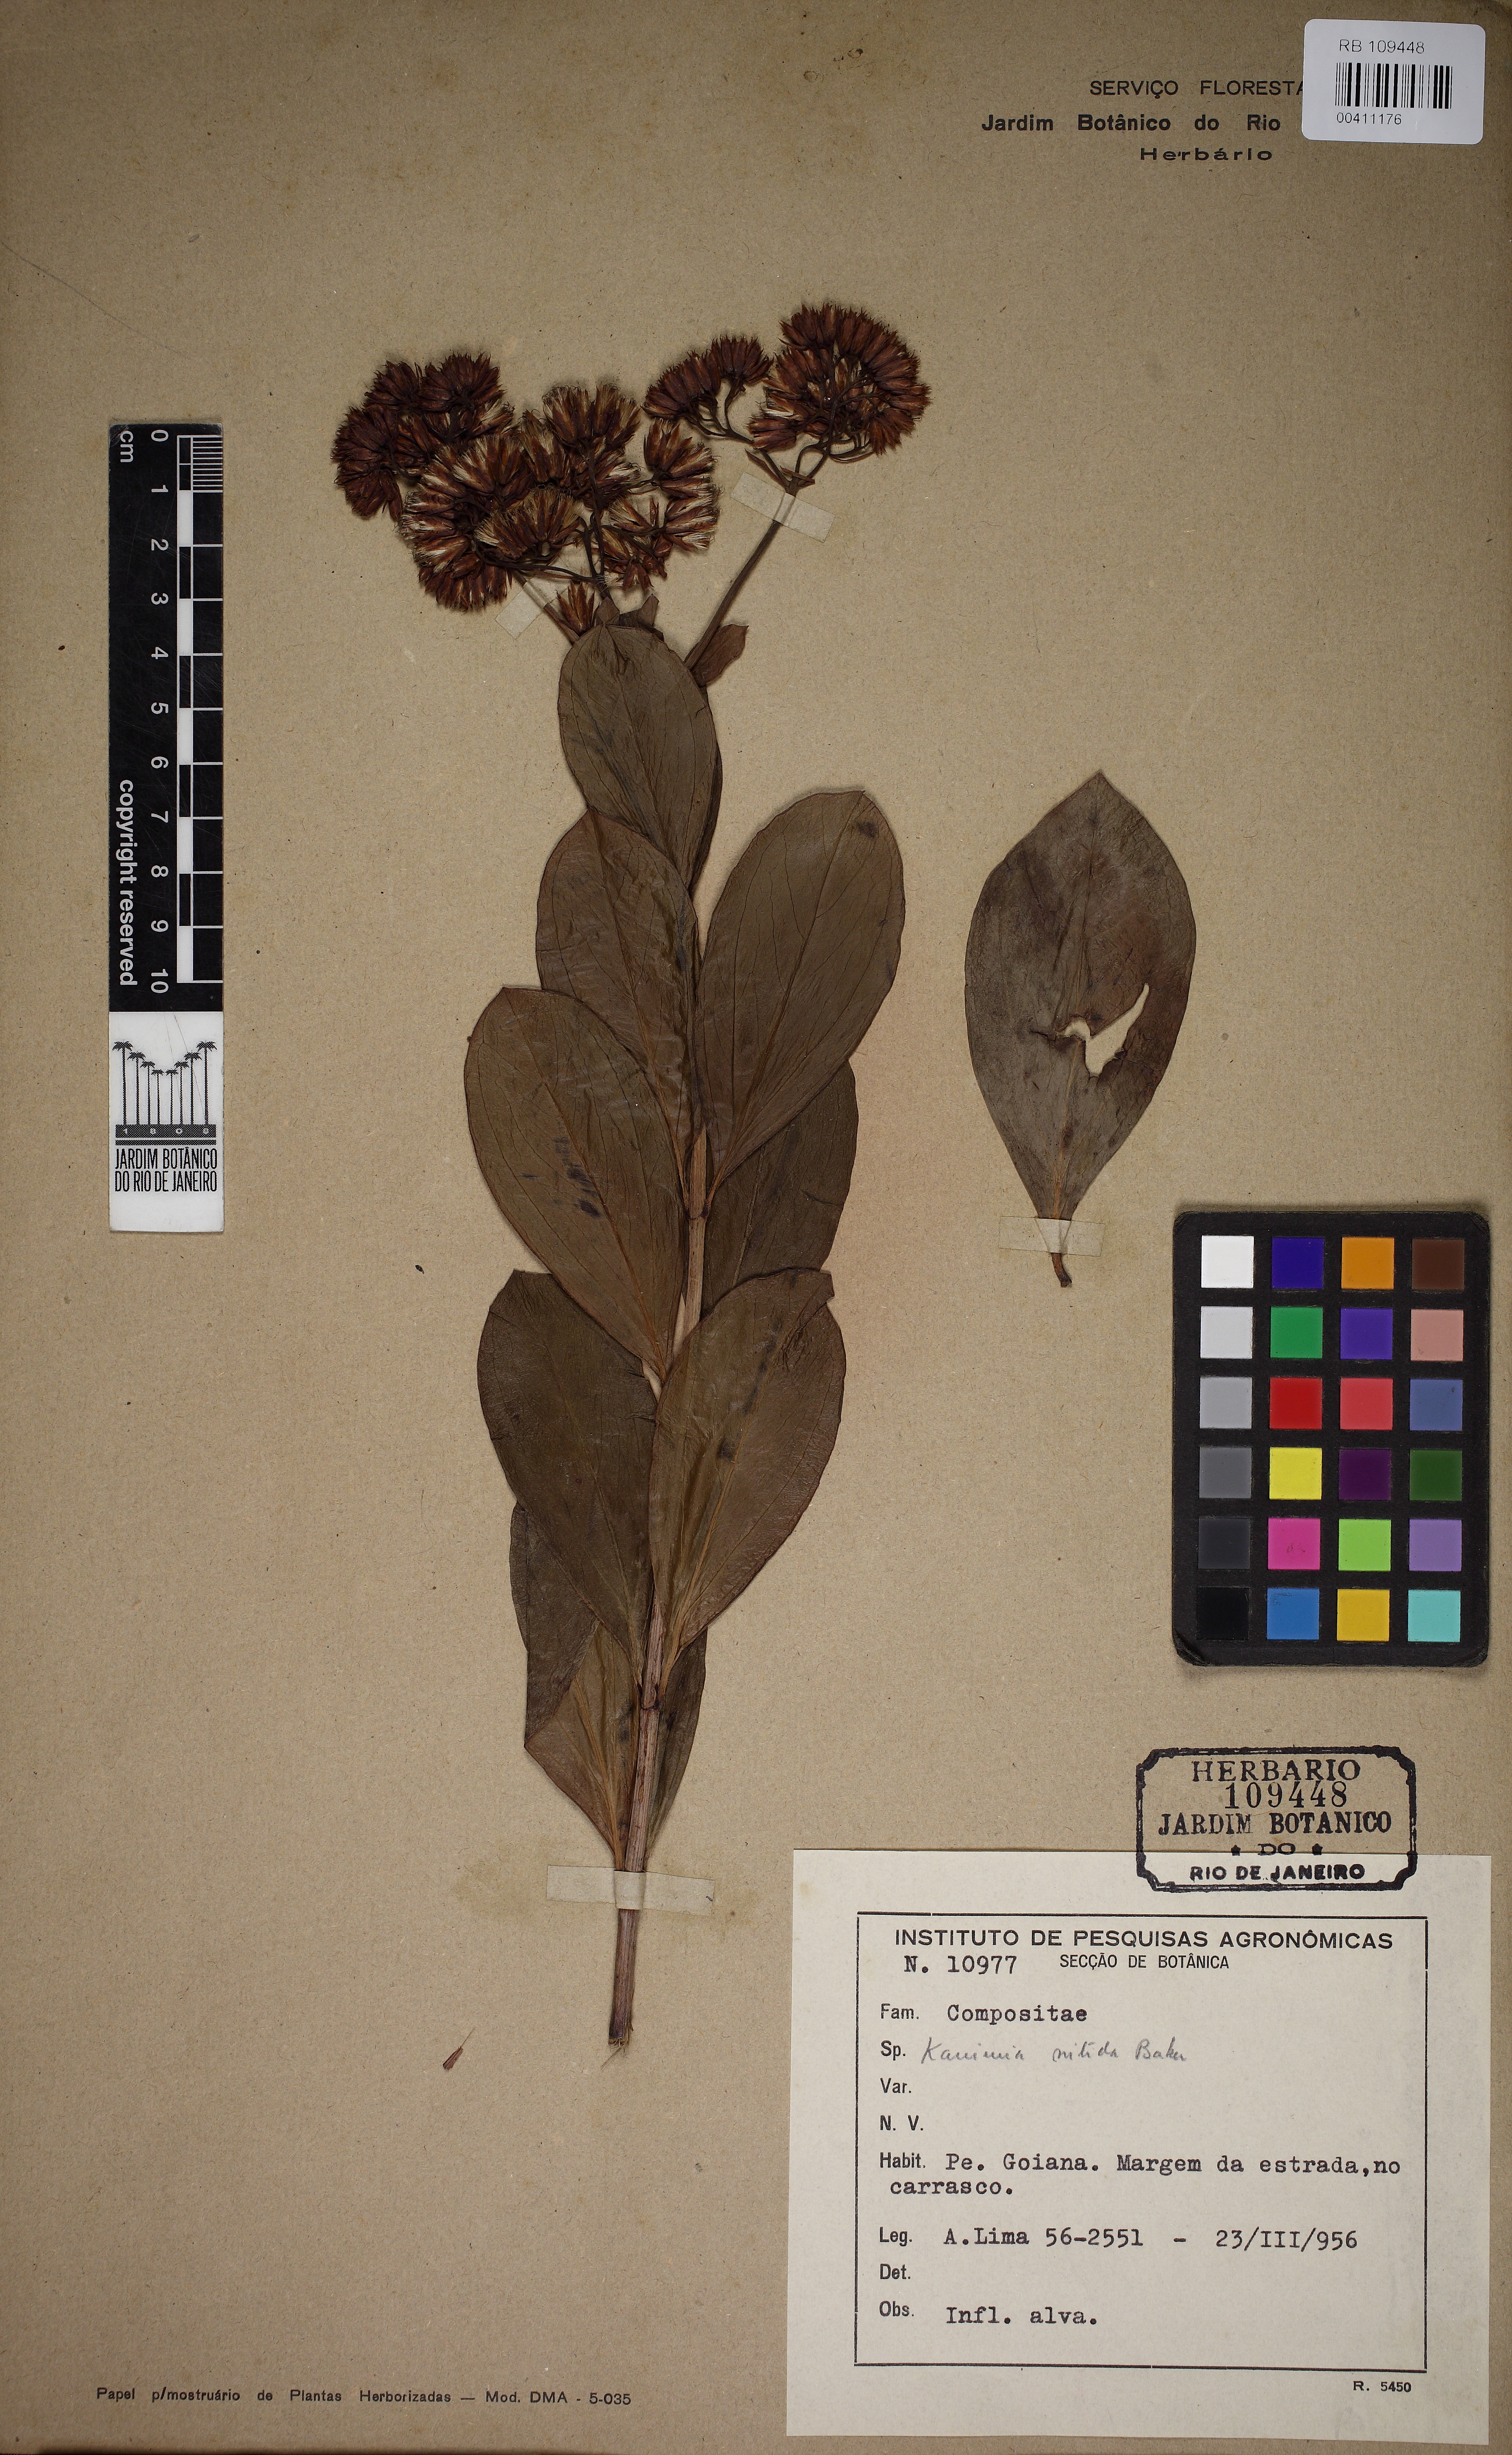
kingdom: Plantae
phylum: Tracheophyta
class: Magnoliopsida
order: Asterales
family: Asteraceae
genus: Litothamnus
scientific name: Litothamnus nitidus
